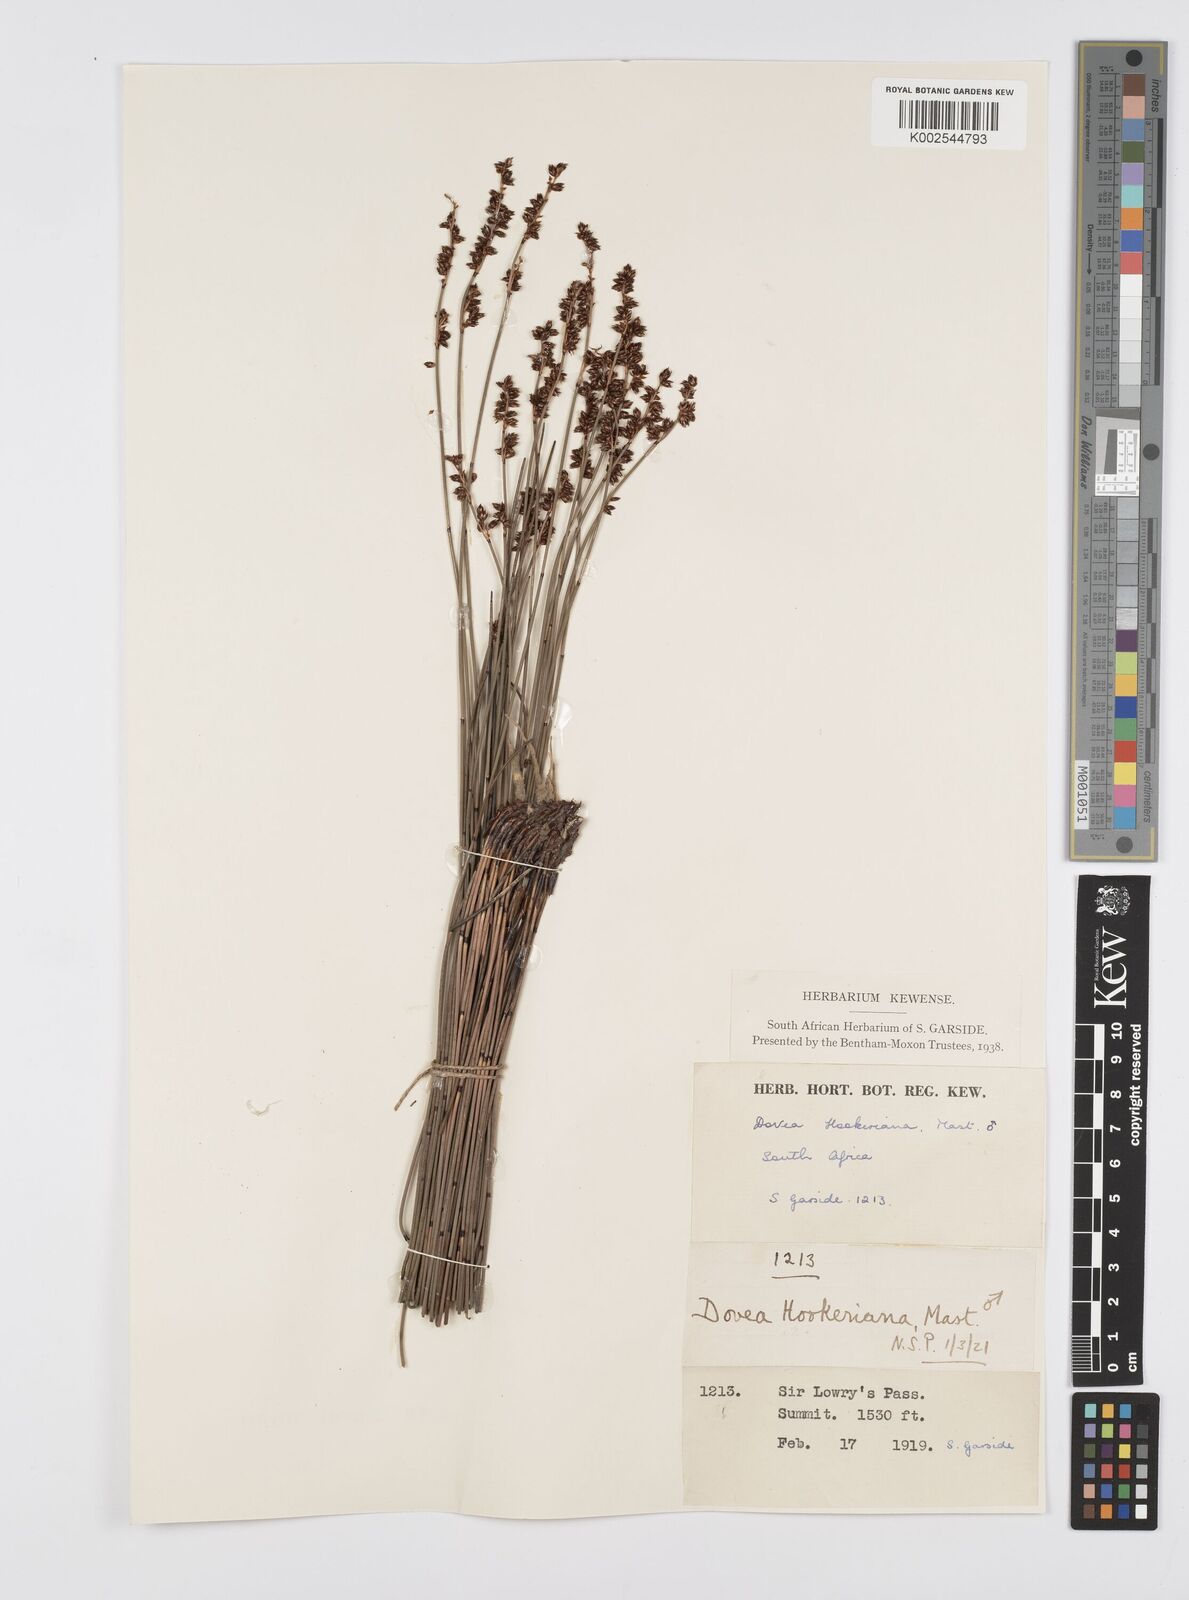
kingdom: Plantae
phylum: Tracheophyta
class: Liliopsida
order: Poales
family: Restionaceae
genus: Elegia
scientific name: Elegia hookeriana
